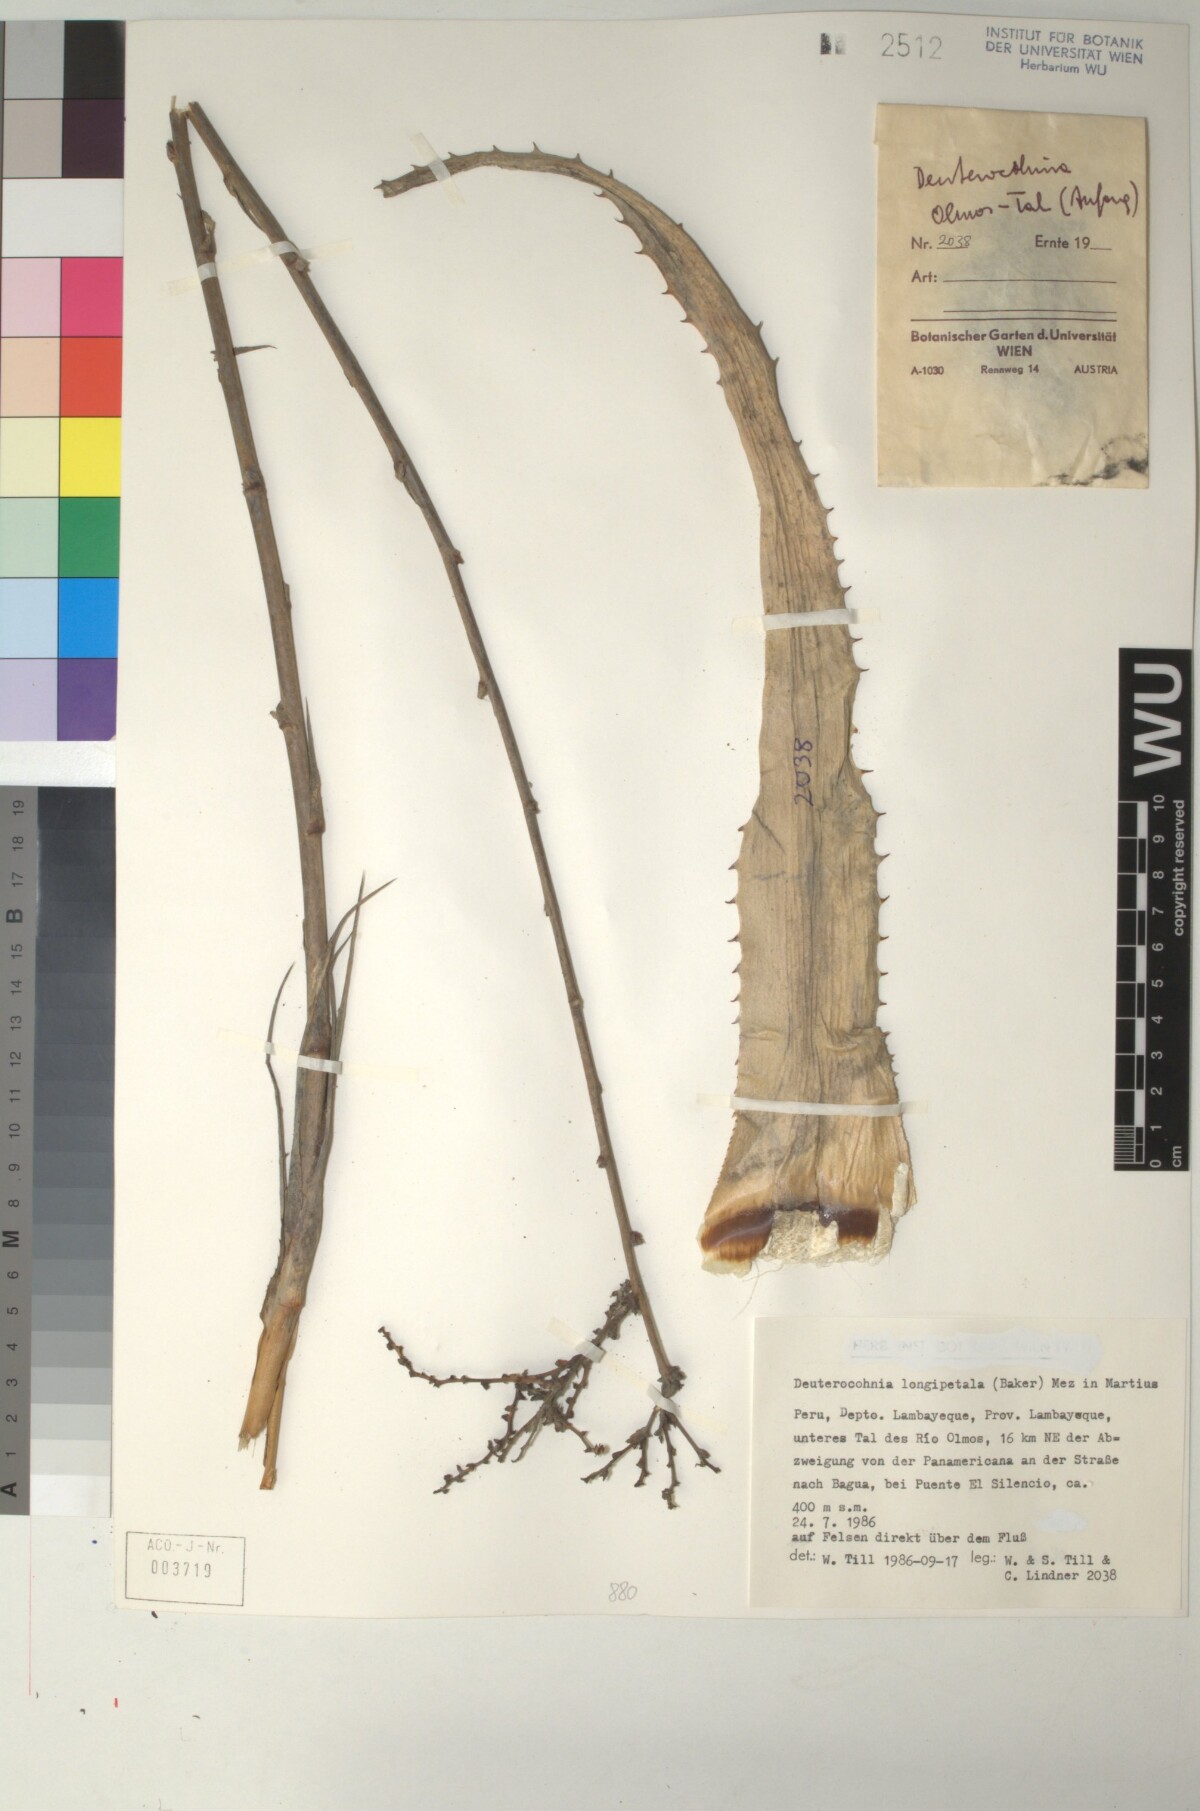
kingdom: Plantae
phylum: Tracheophyta
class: Liliopsida
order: Poales
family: Bromeliaceae
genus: Deuterocohnia
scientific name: Deuterocohnia longipetala
